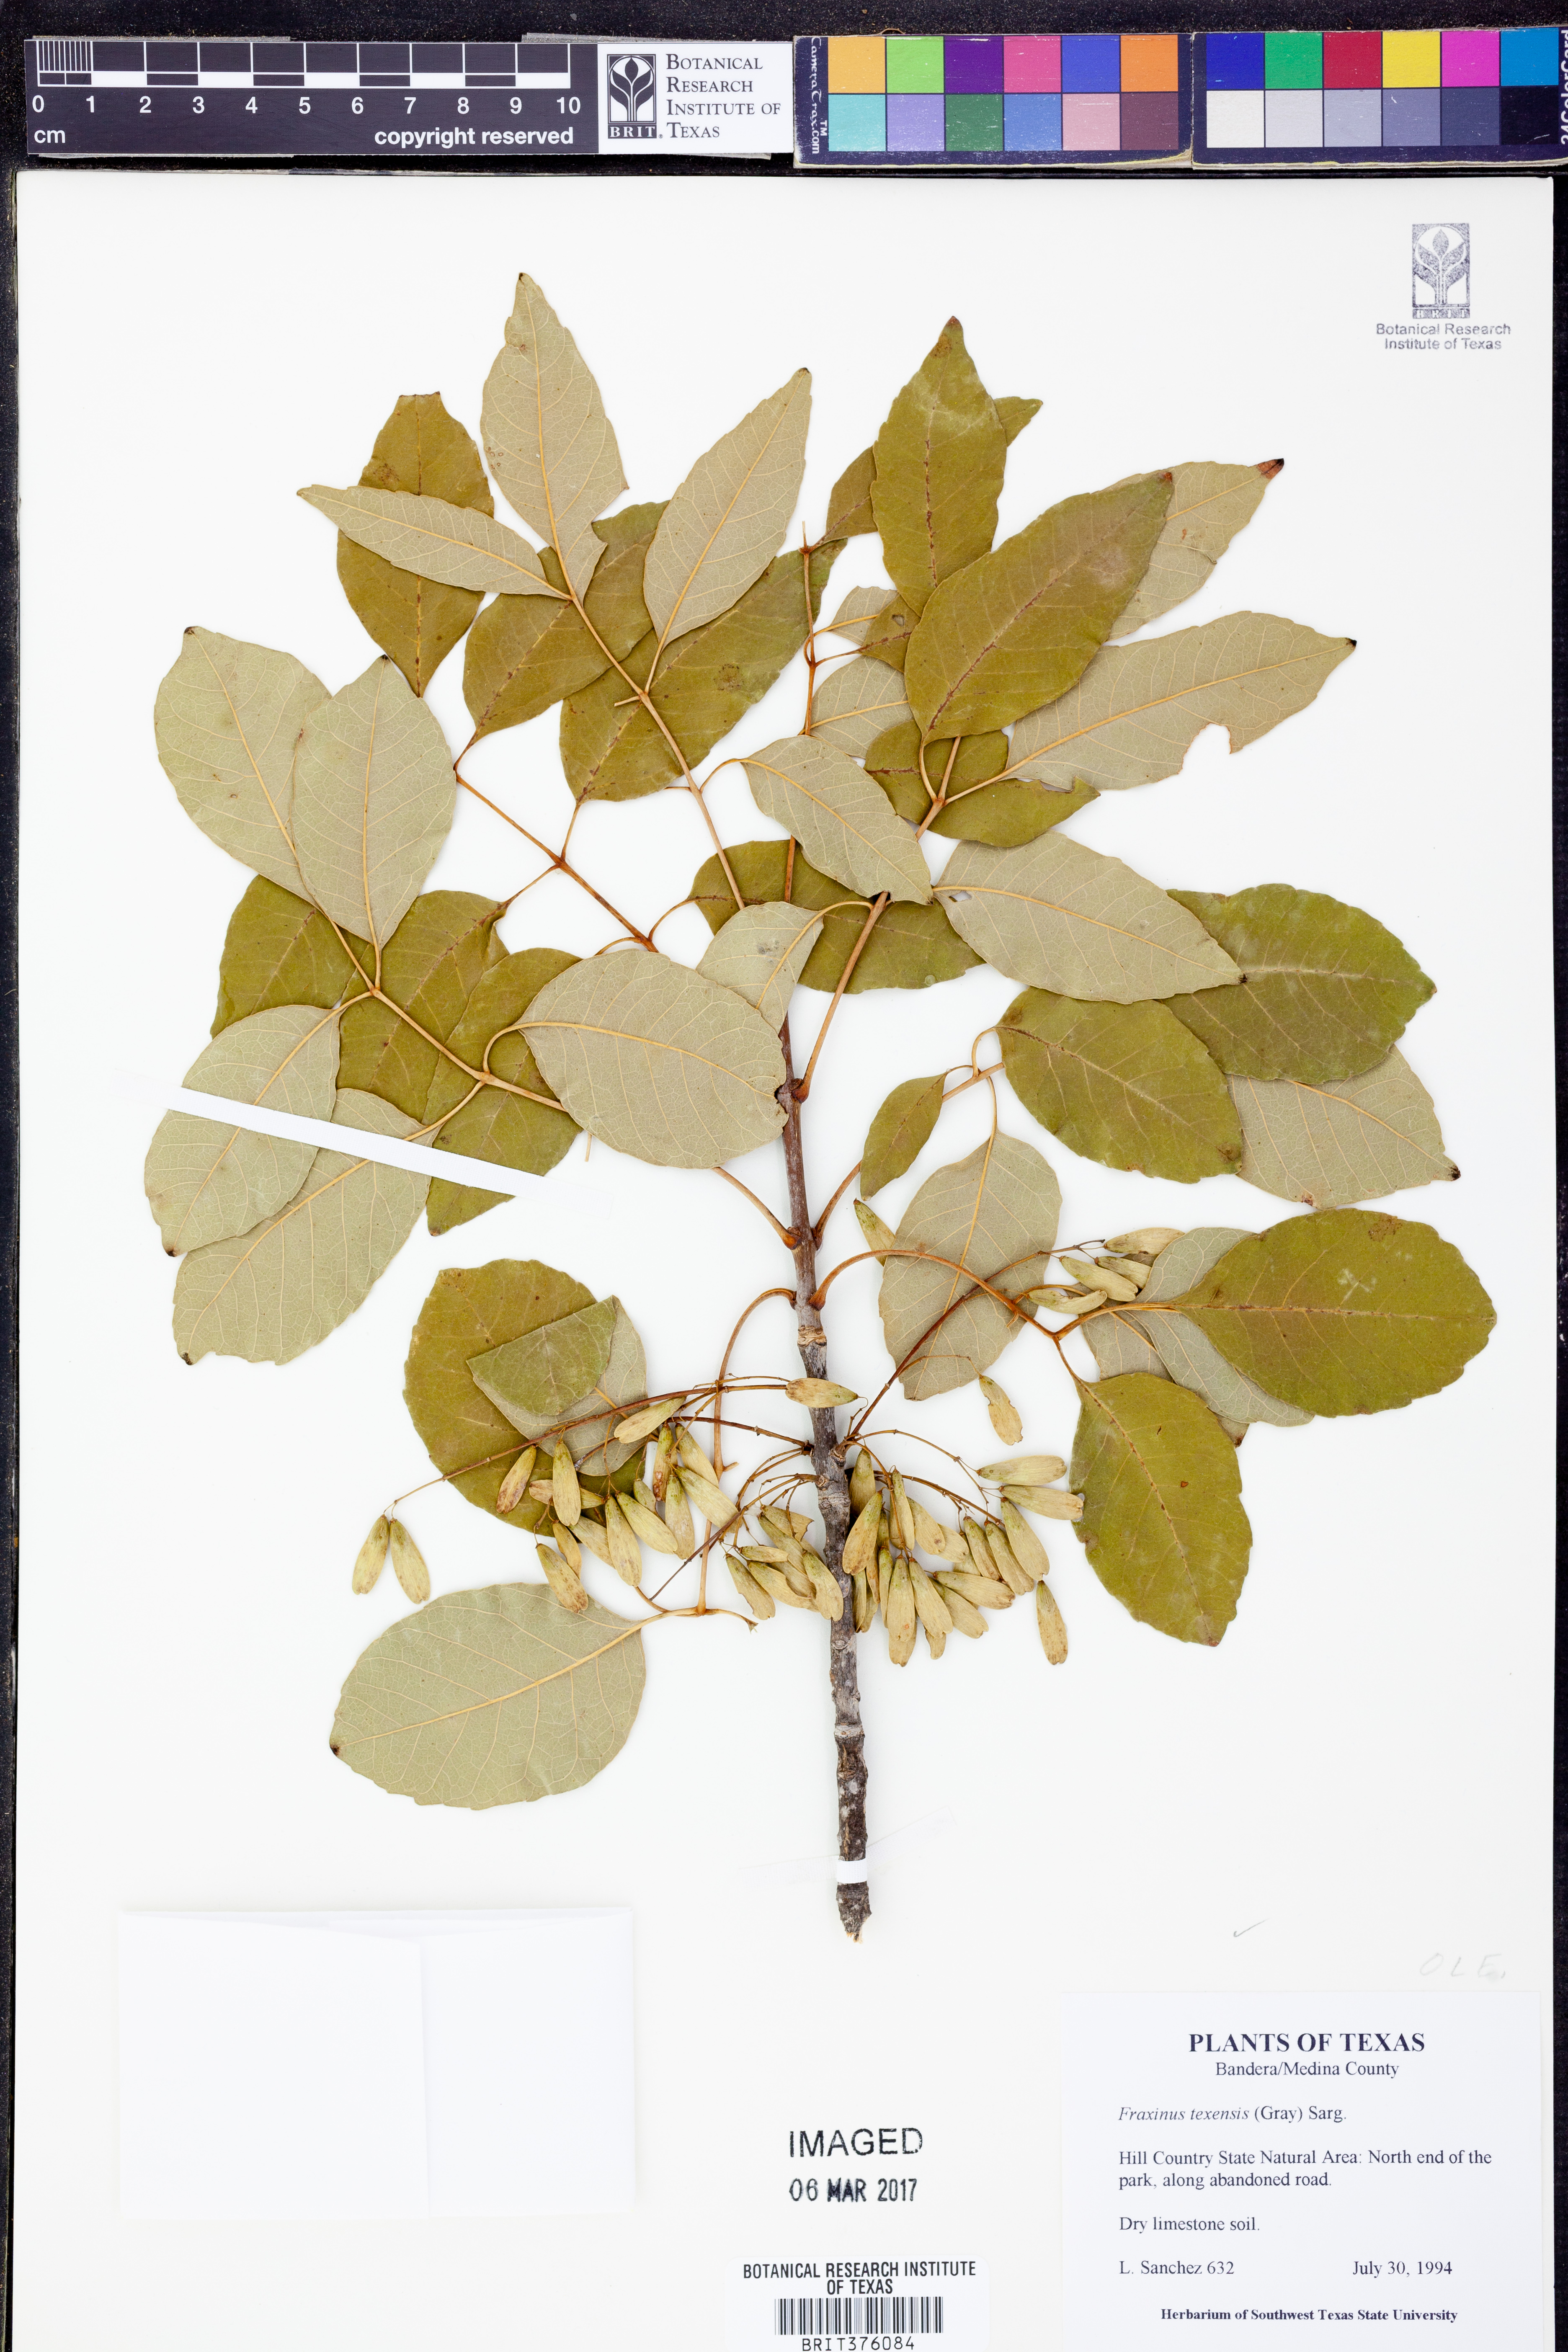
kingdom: Plantae
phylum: Tracheophyta
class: Magnoliopsida
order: Lamiales
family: Oleaceae
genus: Fraxinus
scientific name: Fraxinus albicans
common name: Texas ash
